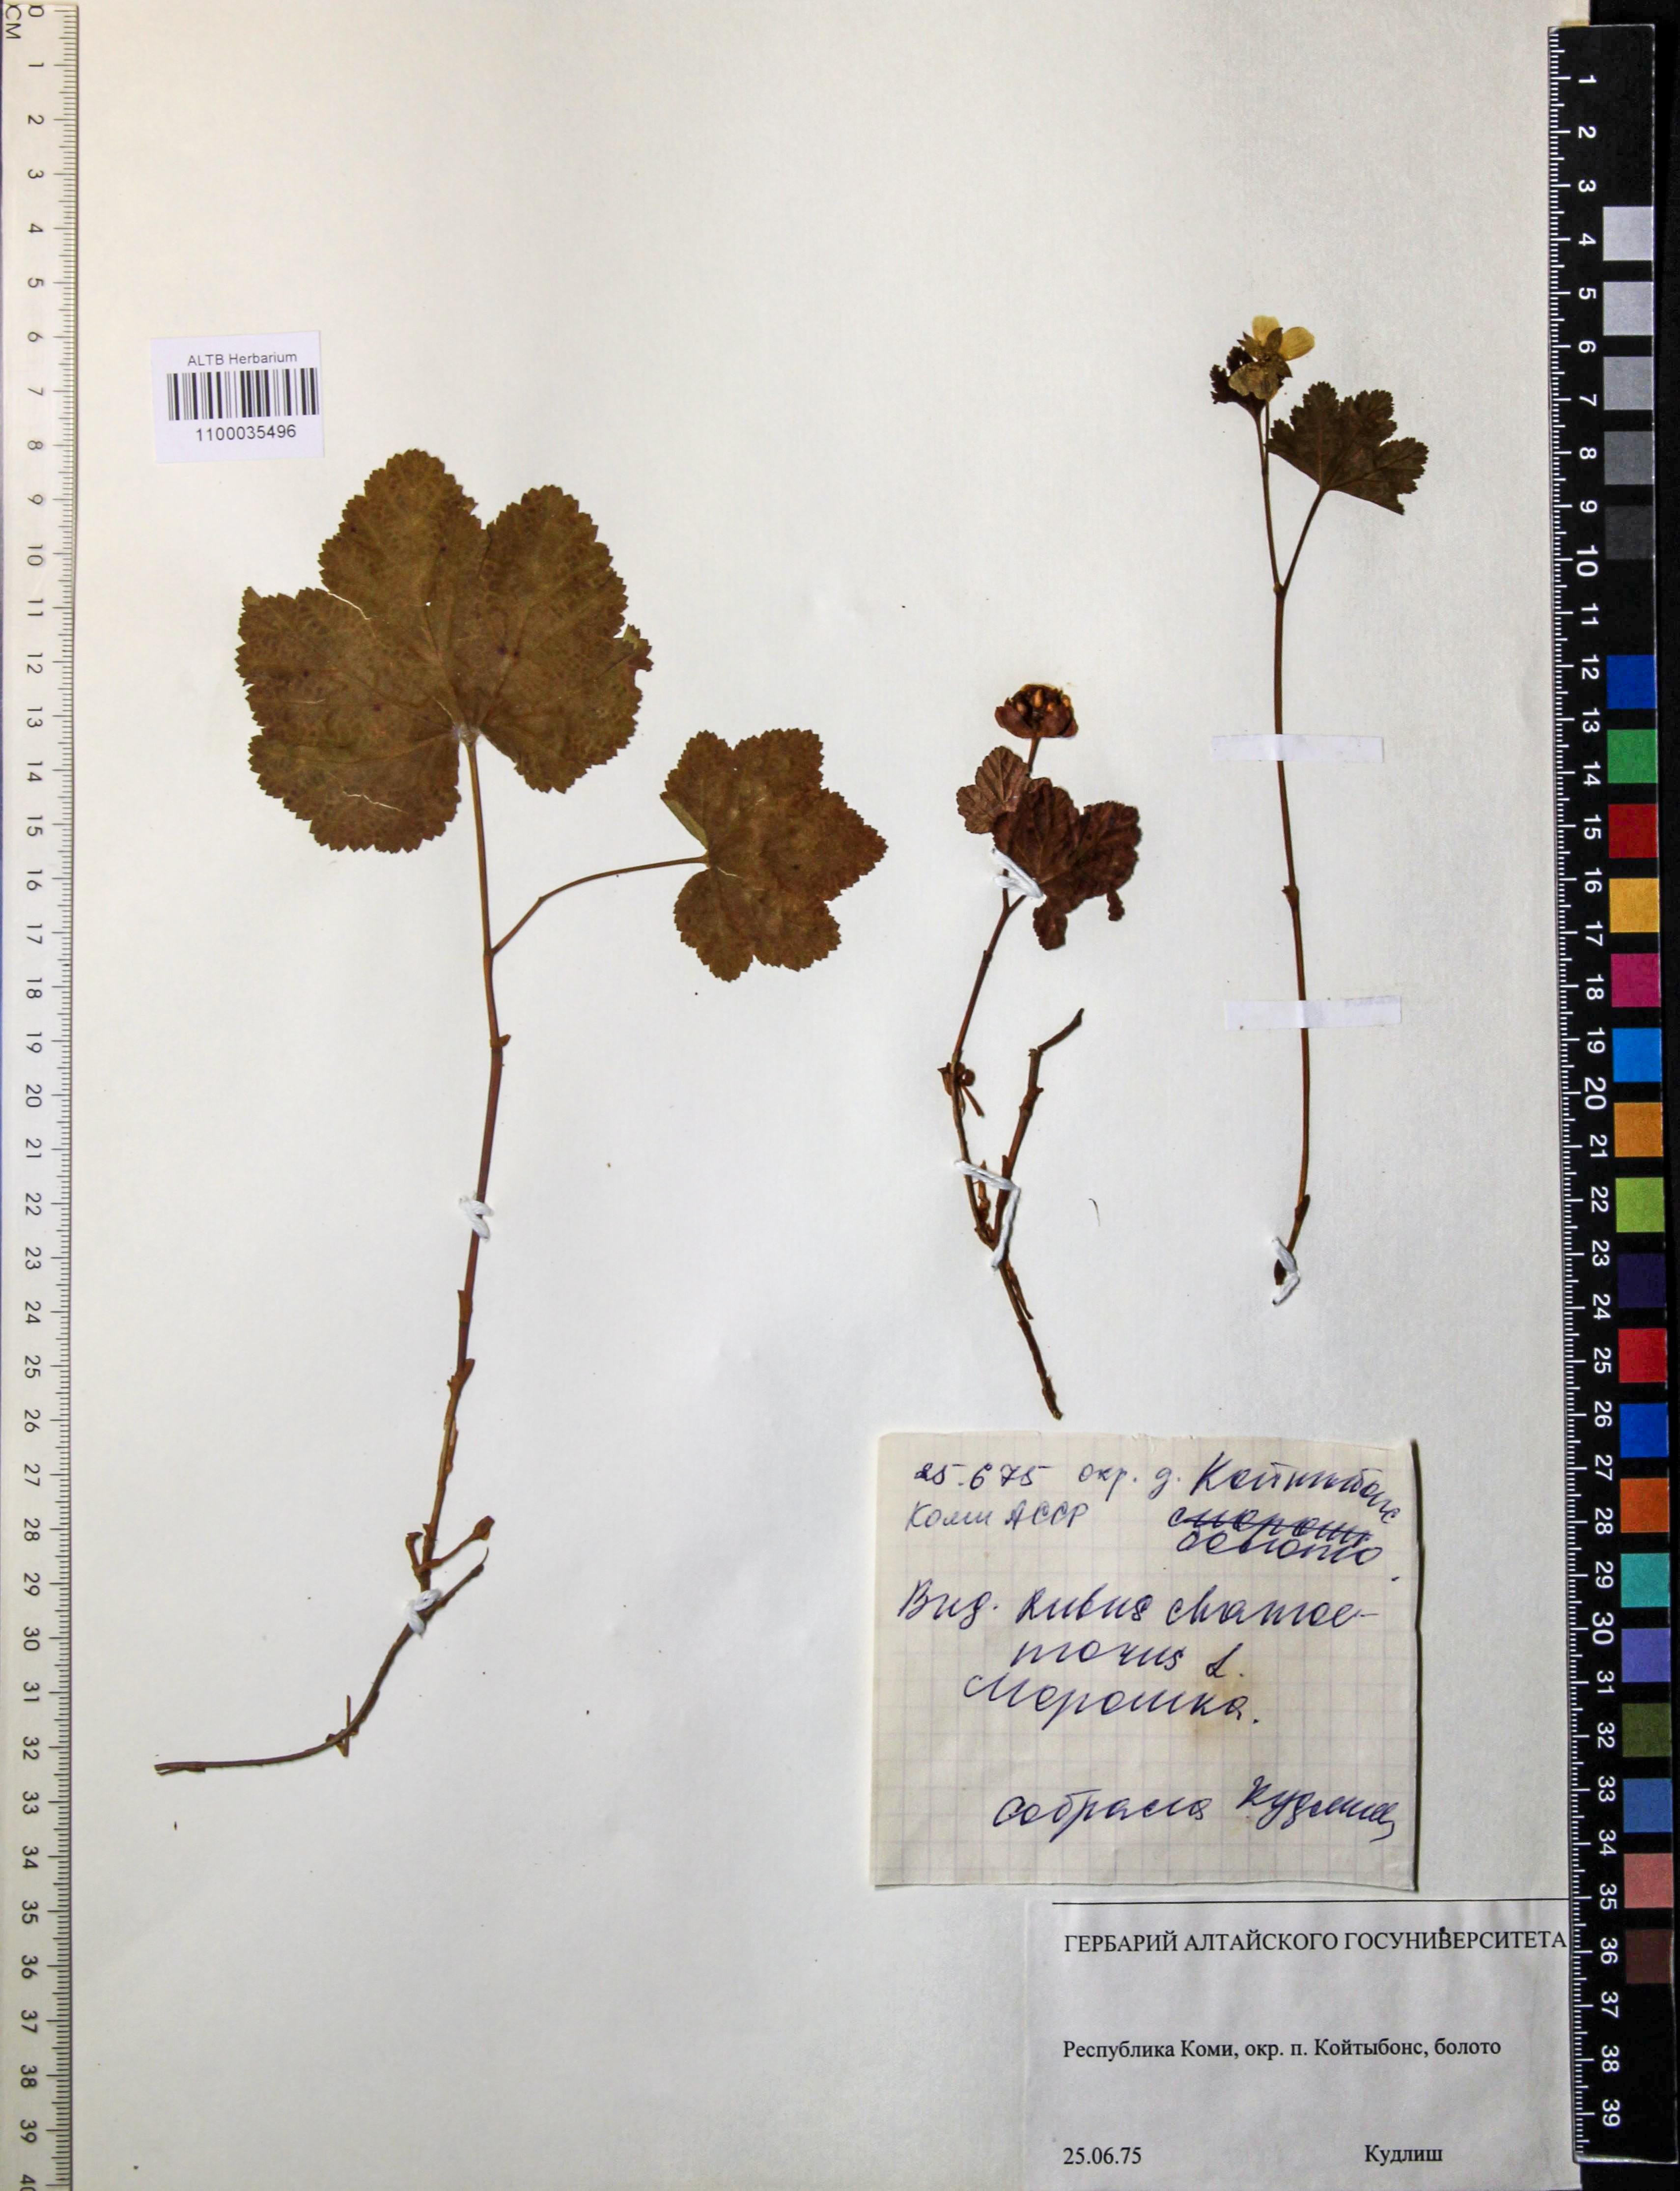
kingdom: Plantae
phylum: Tracheophyta
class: Magnoliopsida
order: Rosales
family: Rosaceae
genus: Rubus
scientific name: Rubus chamaemorus
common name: Cloudberry
